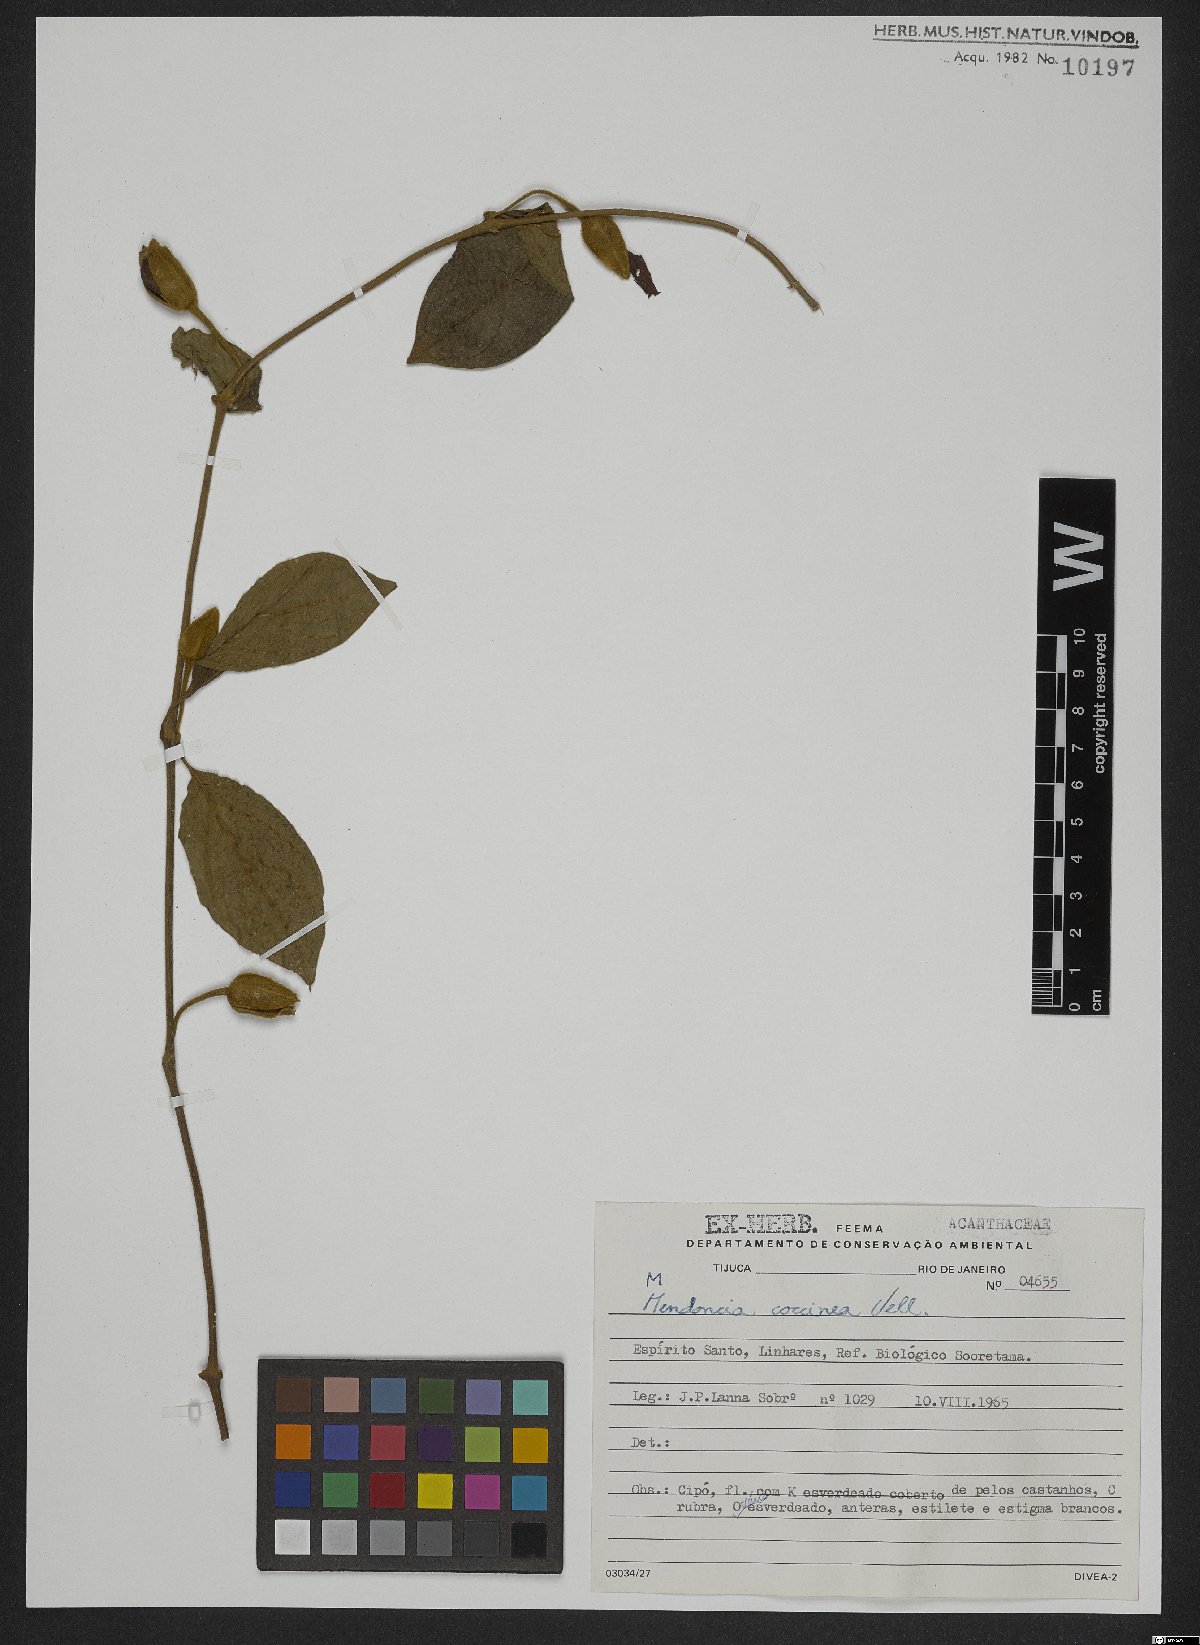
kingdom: Plantae
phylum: Tracheophyta
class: Magnoliopsida
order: Lamiales
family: Acanthaceae
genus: Mendoncia
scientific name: Mendoncia coccinea
